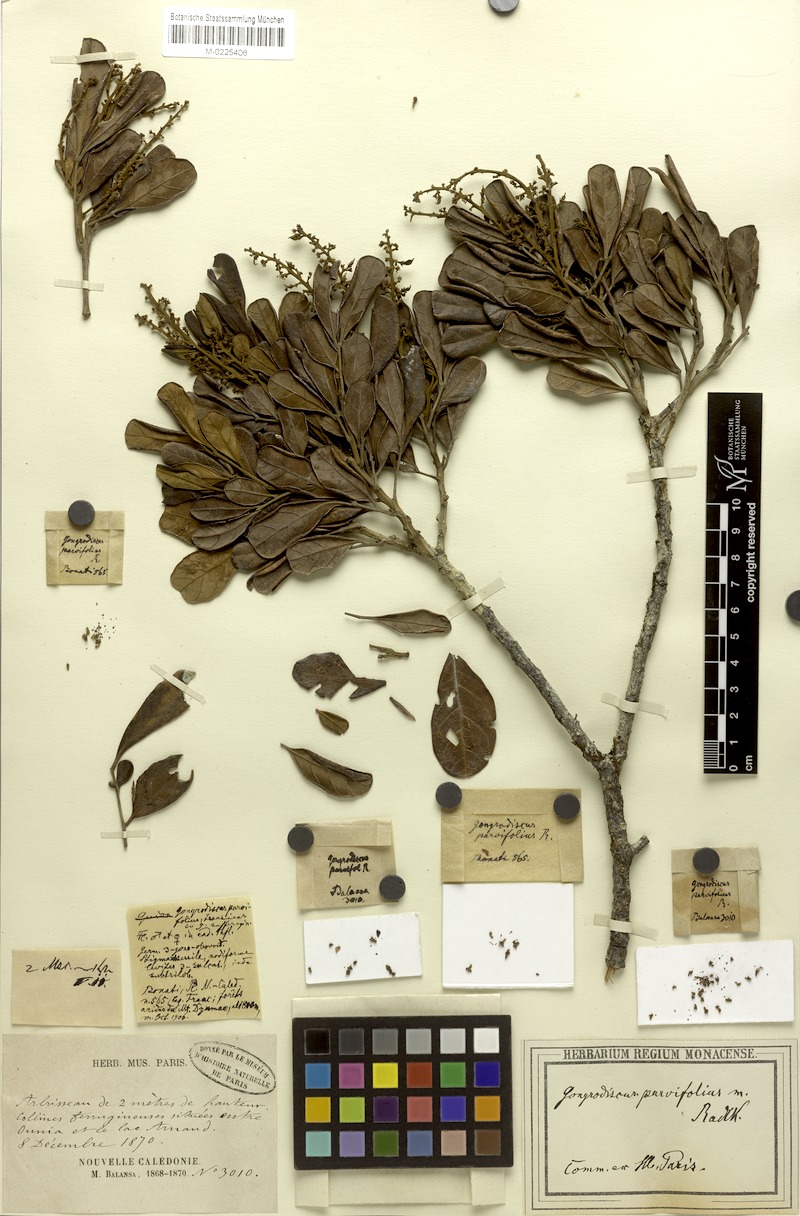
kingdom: Plantae
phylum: Tracheophyta
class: Magnoliopsida
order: Sapindales
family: Sapindaceae
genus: Gongrodiscus
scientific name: Gongrodiscus parvifolius
